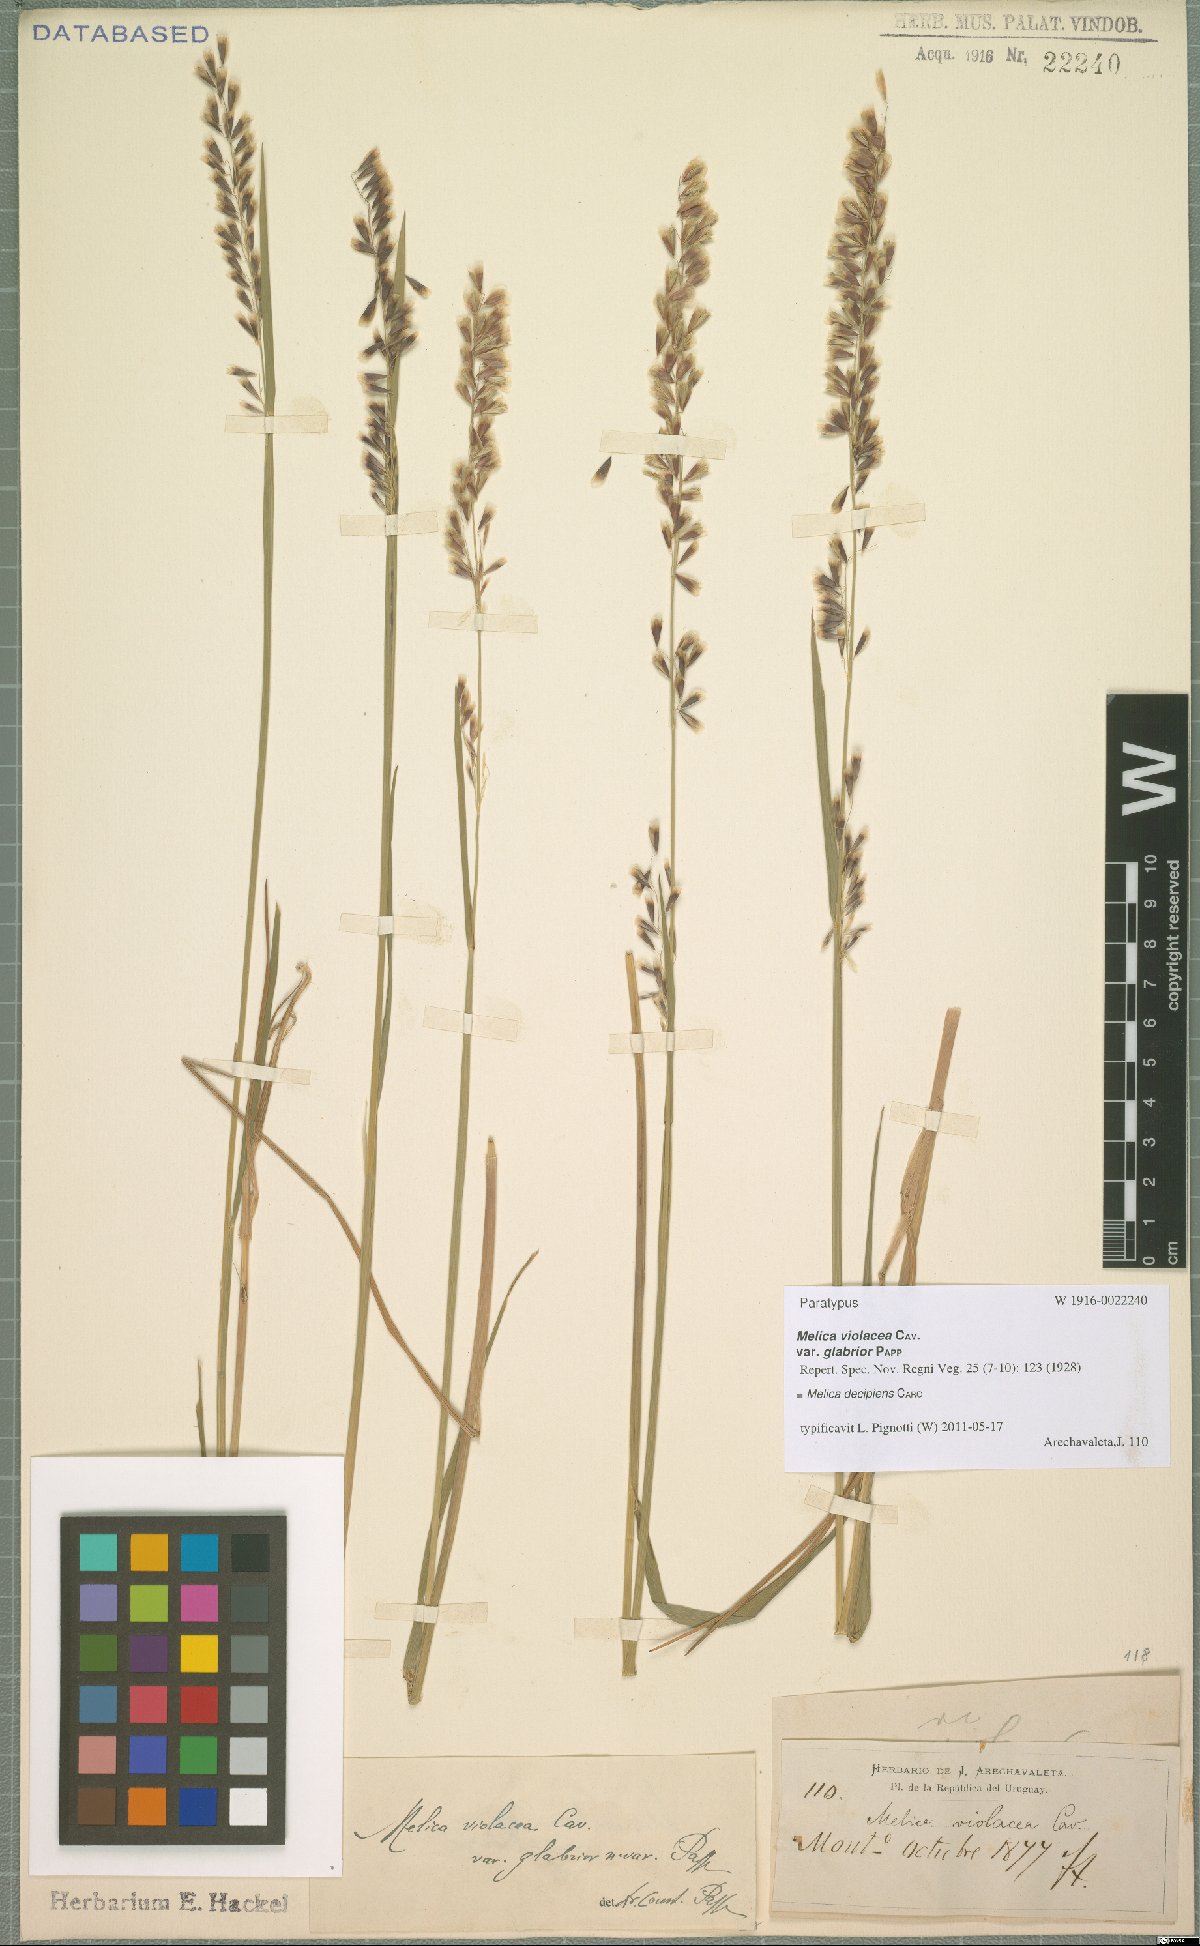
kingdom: Plantae
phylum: Tracheophyta
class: Liliopsida
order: Poales
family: Poaceae
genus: Melica
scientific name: Melica decipiens
